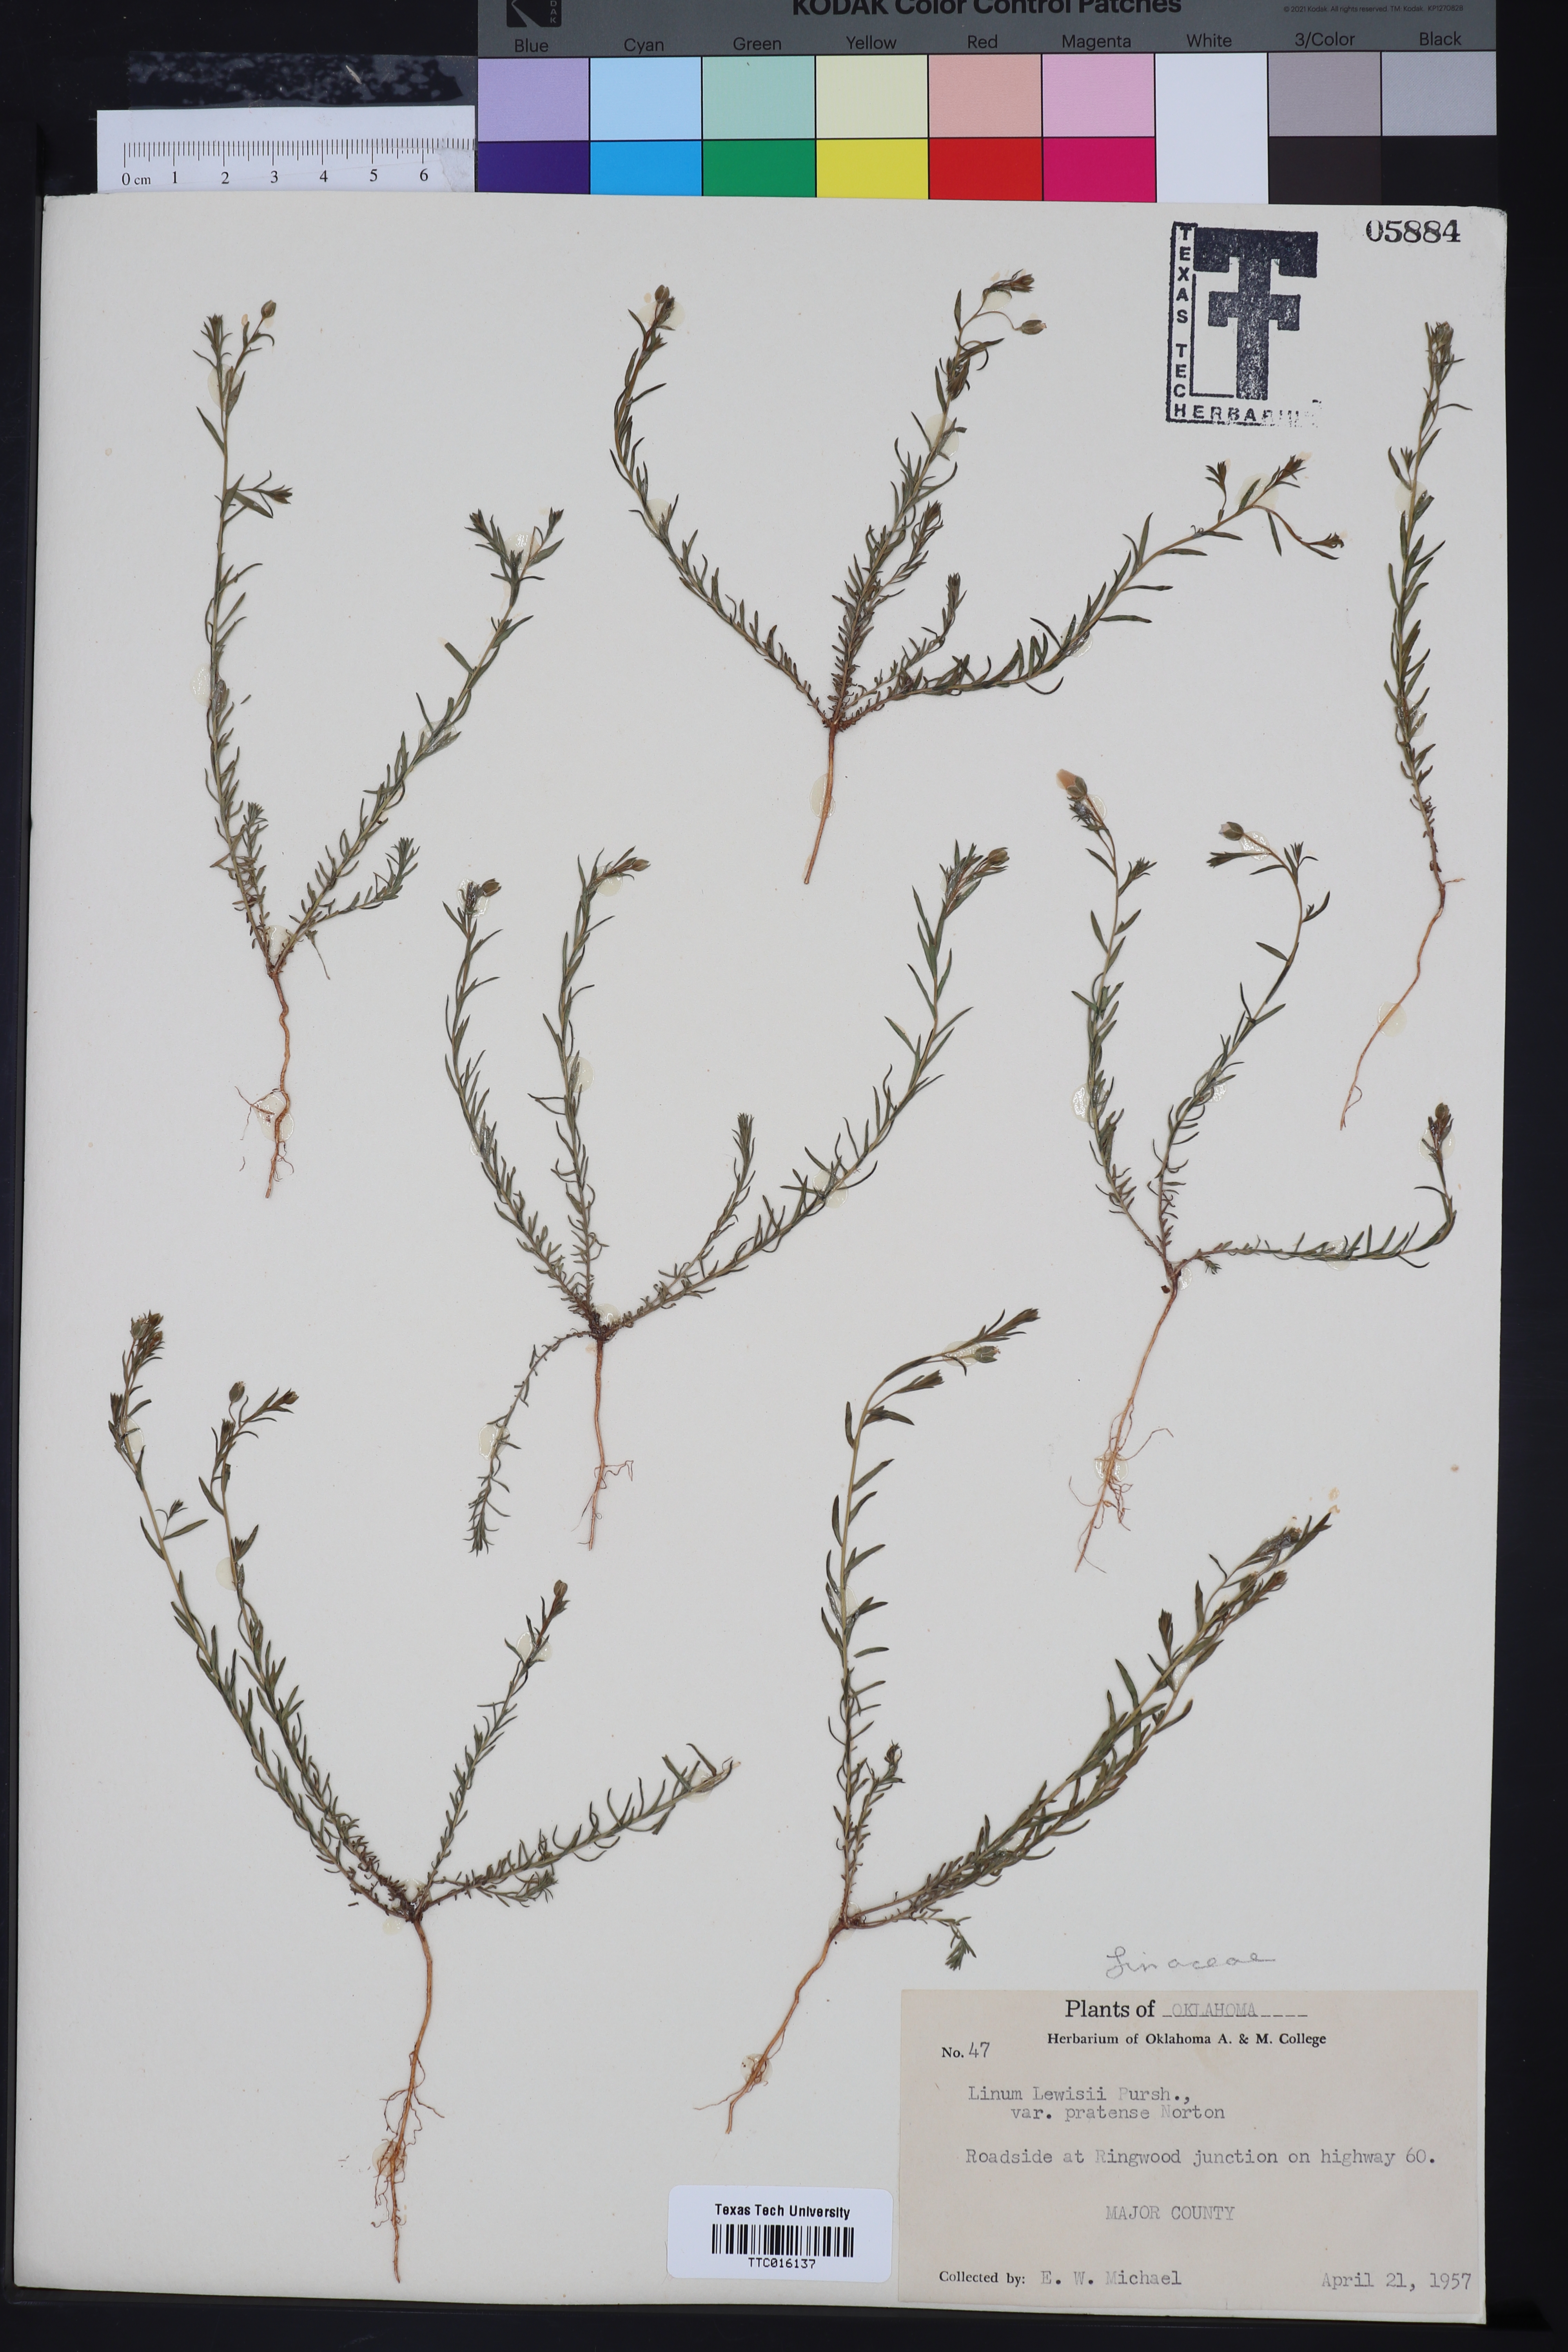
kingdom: Plantae
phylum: Tracheophyta
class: Magnoliopsida
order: Malpighiales
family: Linaceae
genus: Linum
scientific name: Linum pratense
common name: Norton's flax
